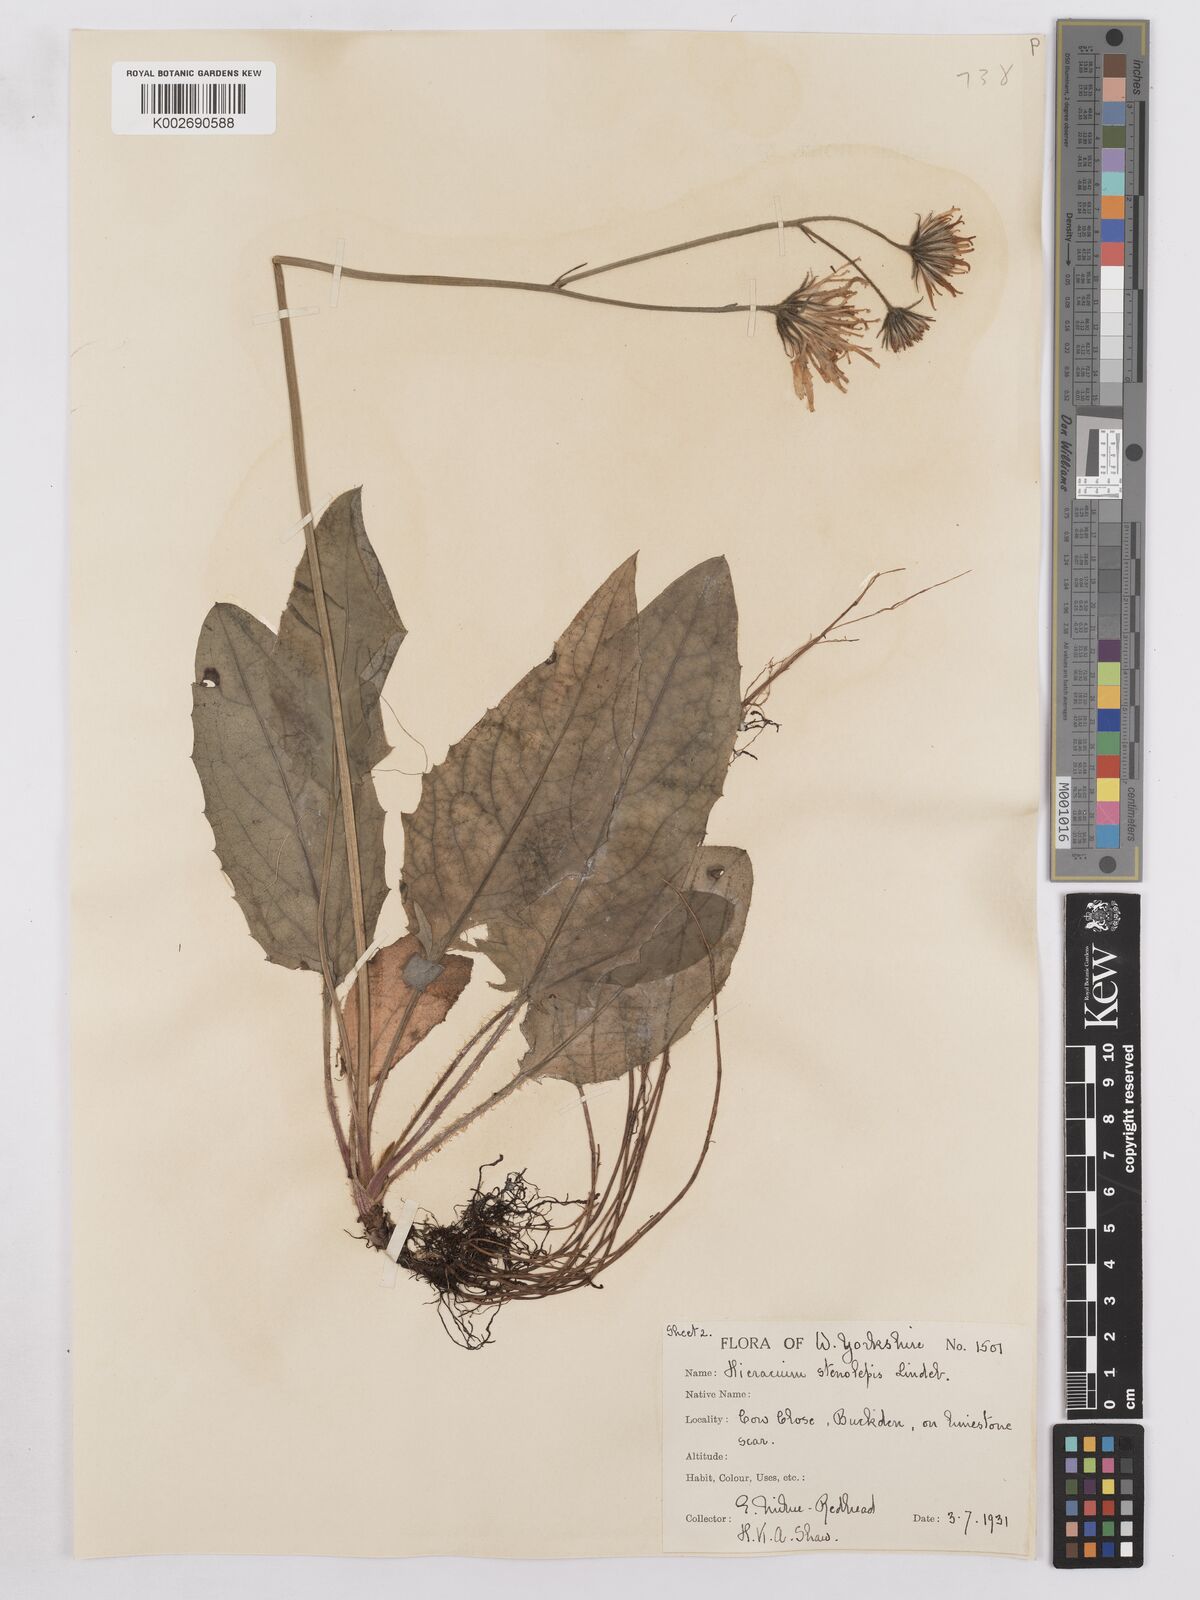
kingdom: Plantae
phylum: Tracheophyta
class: Magnoliopsida
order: Asterales
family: Asteraceae
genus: Hieracium
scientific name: Hieracium subbritannicum
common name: Limestone hawkweed
